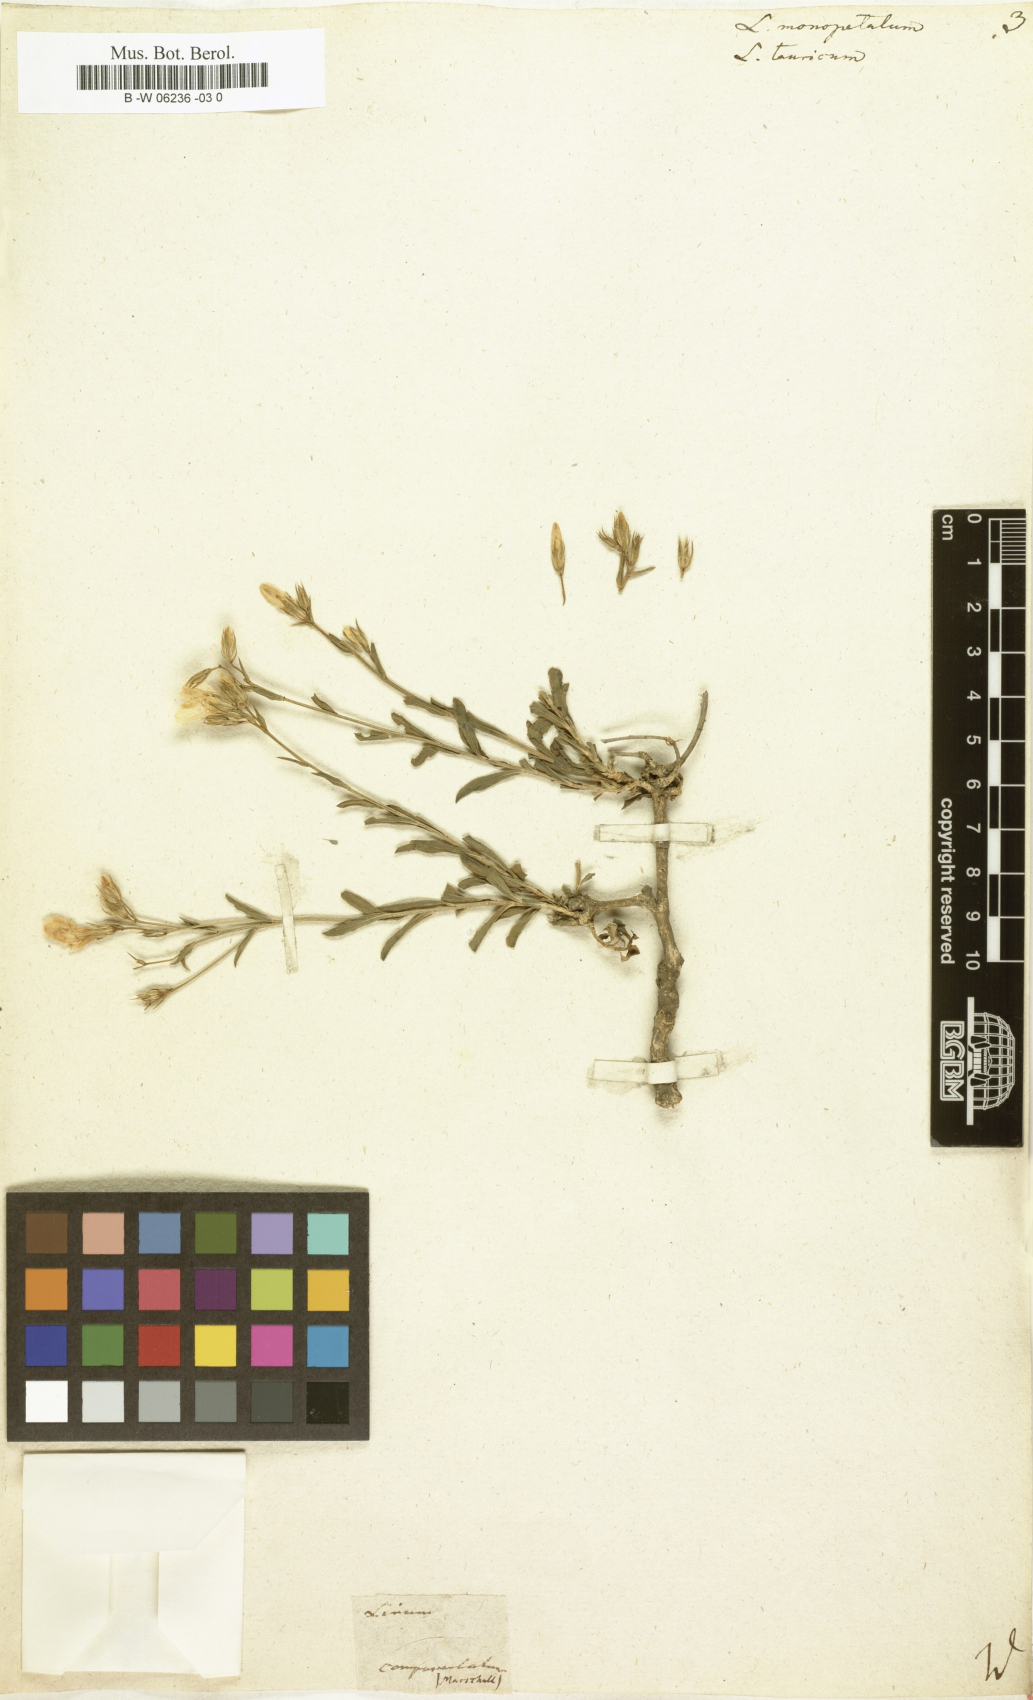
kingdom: Plantae
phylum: Tracheophyta
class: Magnoliopsida
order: Malpighiales
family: Linaceae
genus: Linum
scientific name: Linum monopetalum
